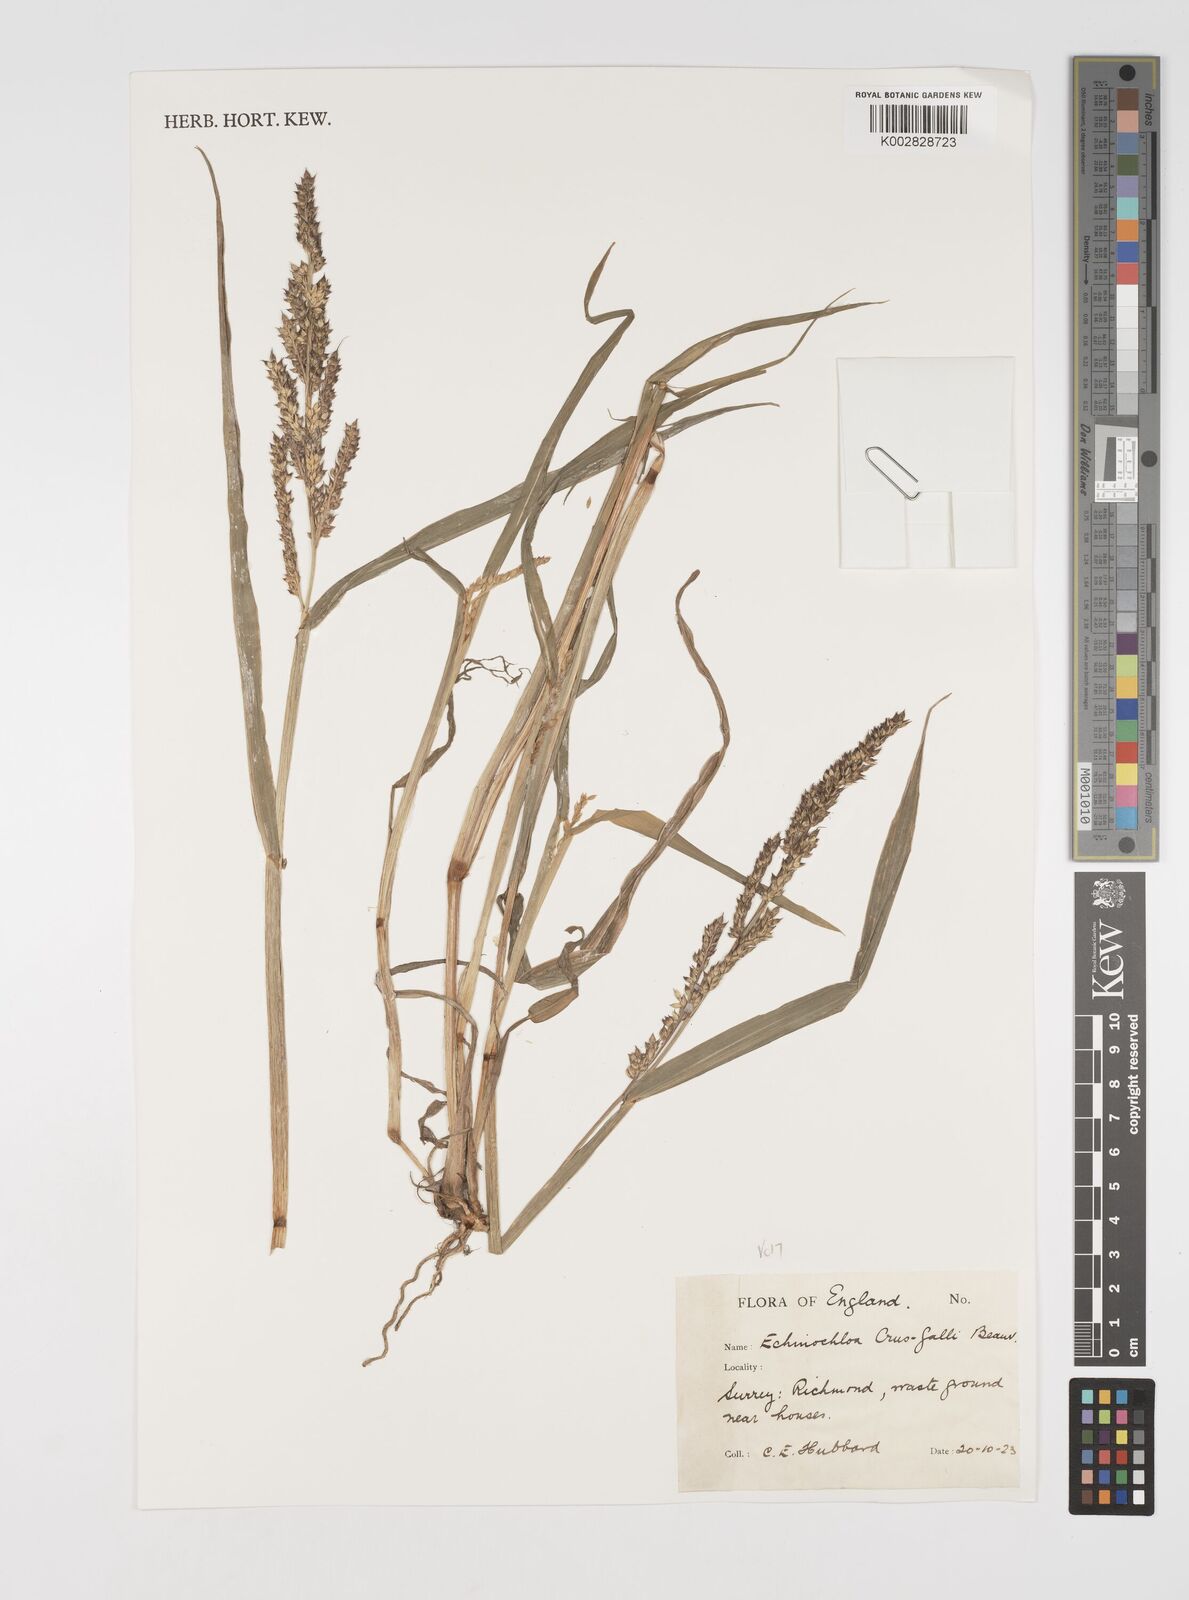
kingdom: Plantae
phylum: Tracheophyta
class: Liliopsida
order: Poales
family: Poaceae
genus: Echinochloa
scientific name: Echinochloa crus-galli
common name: Cockspur
